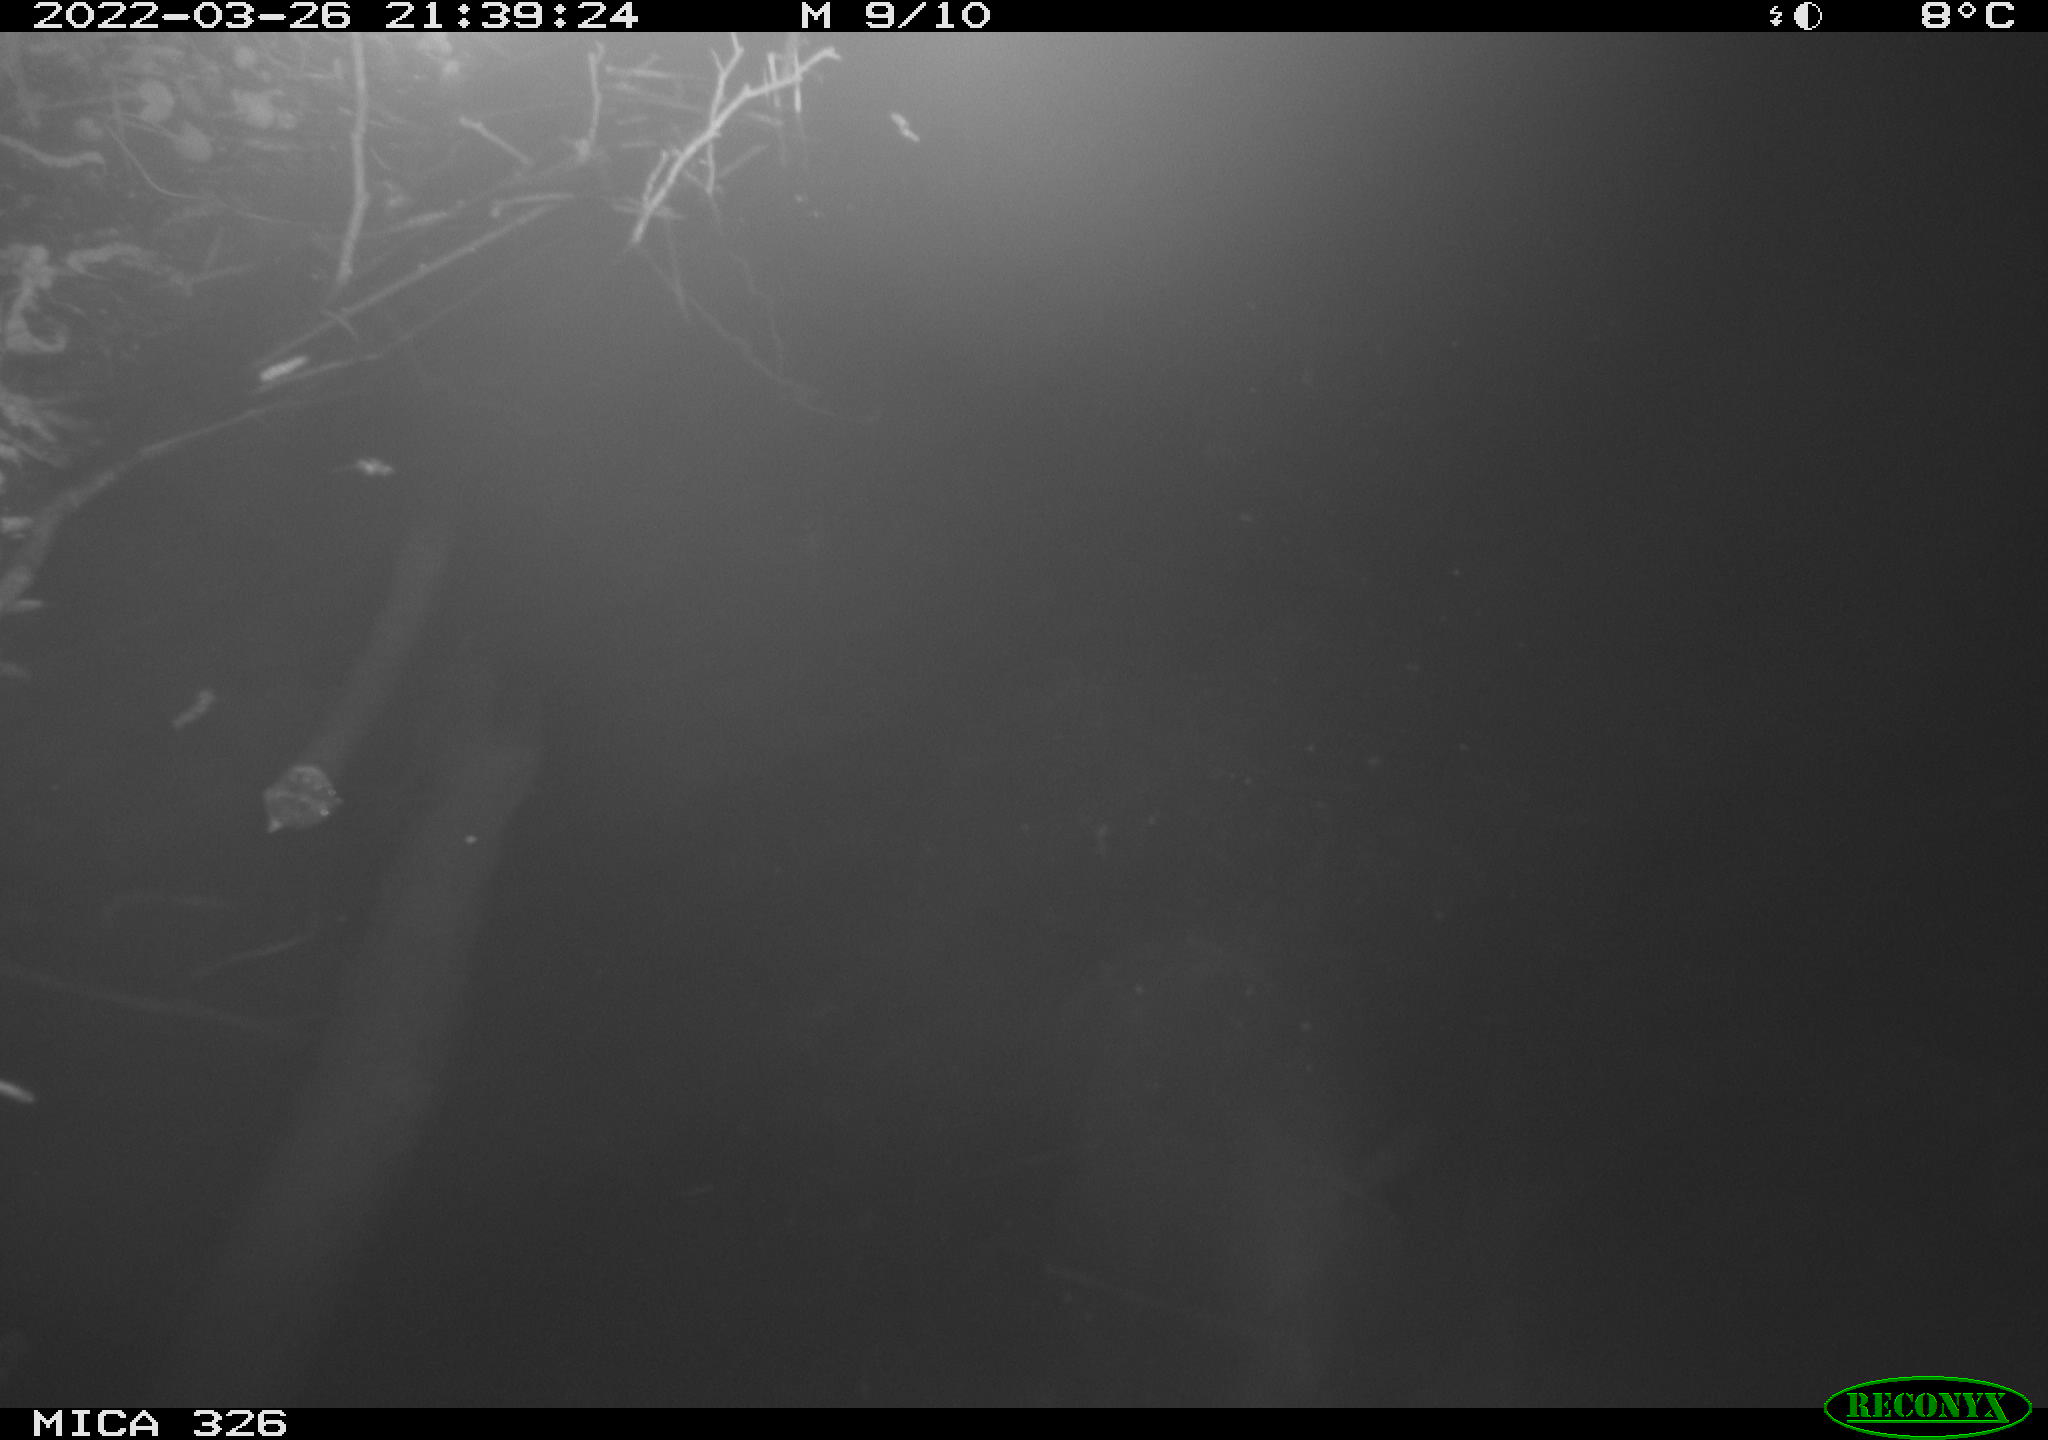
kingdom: Animalia
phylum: Chordata
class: Mammalia
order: Rodentia
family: Cricetidae
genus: Ondatra
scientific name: Ondatra zibethicus
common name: Muskrat
